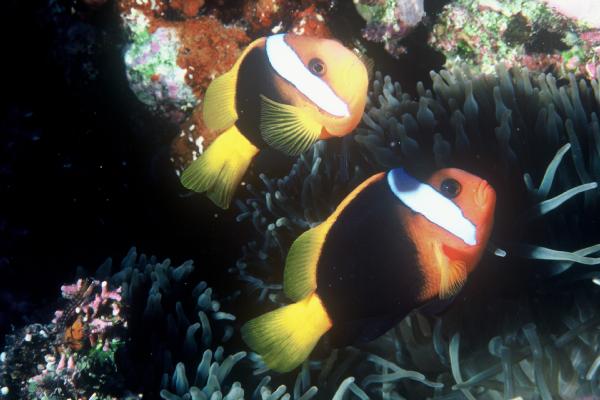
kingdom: Animalia
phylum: Chordata
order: Perciformes
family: Pomacentridae
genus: Amphiprion
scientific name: Amphiprion melanopus
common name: Black anemonefish
